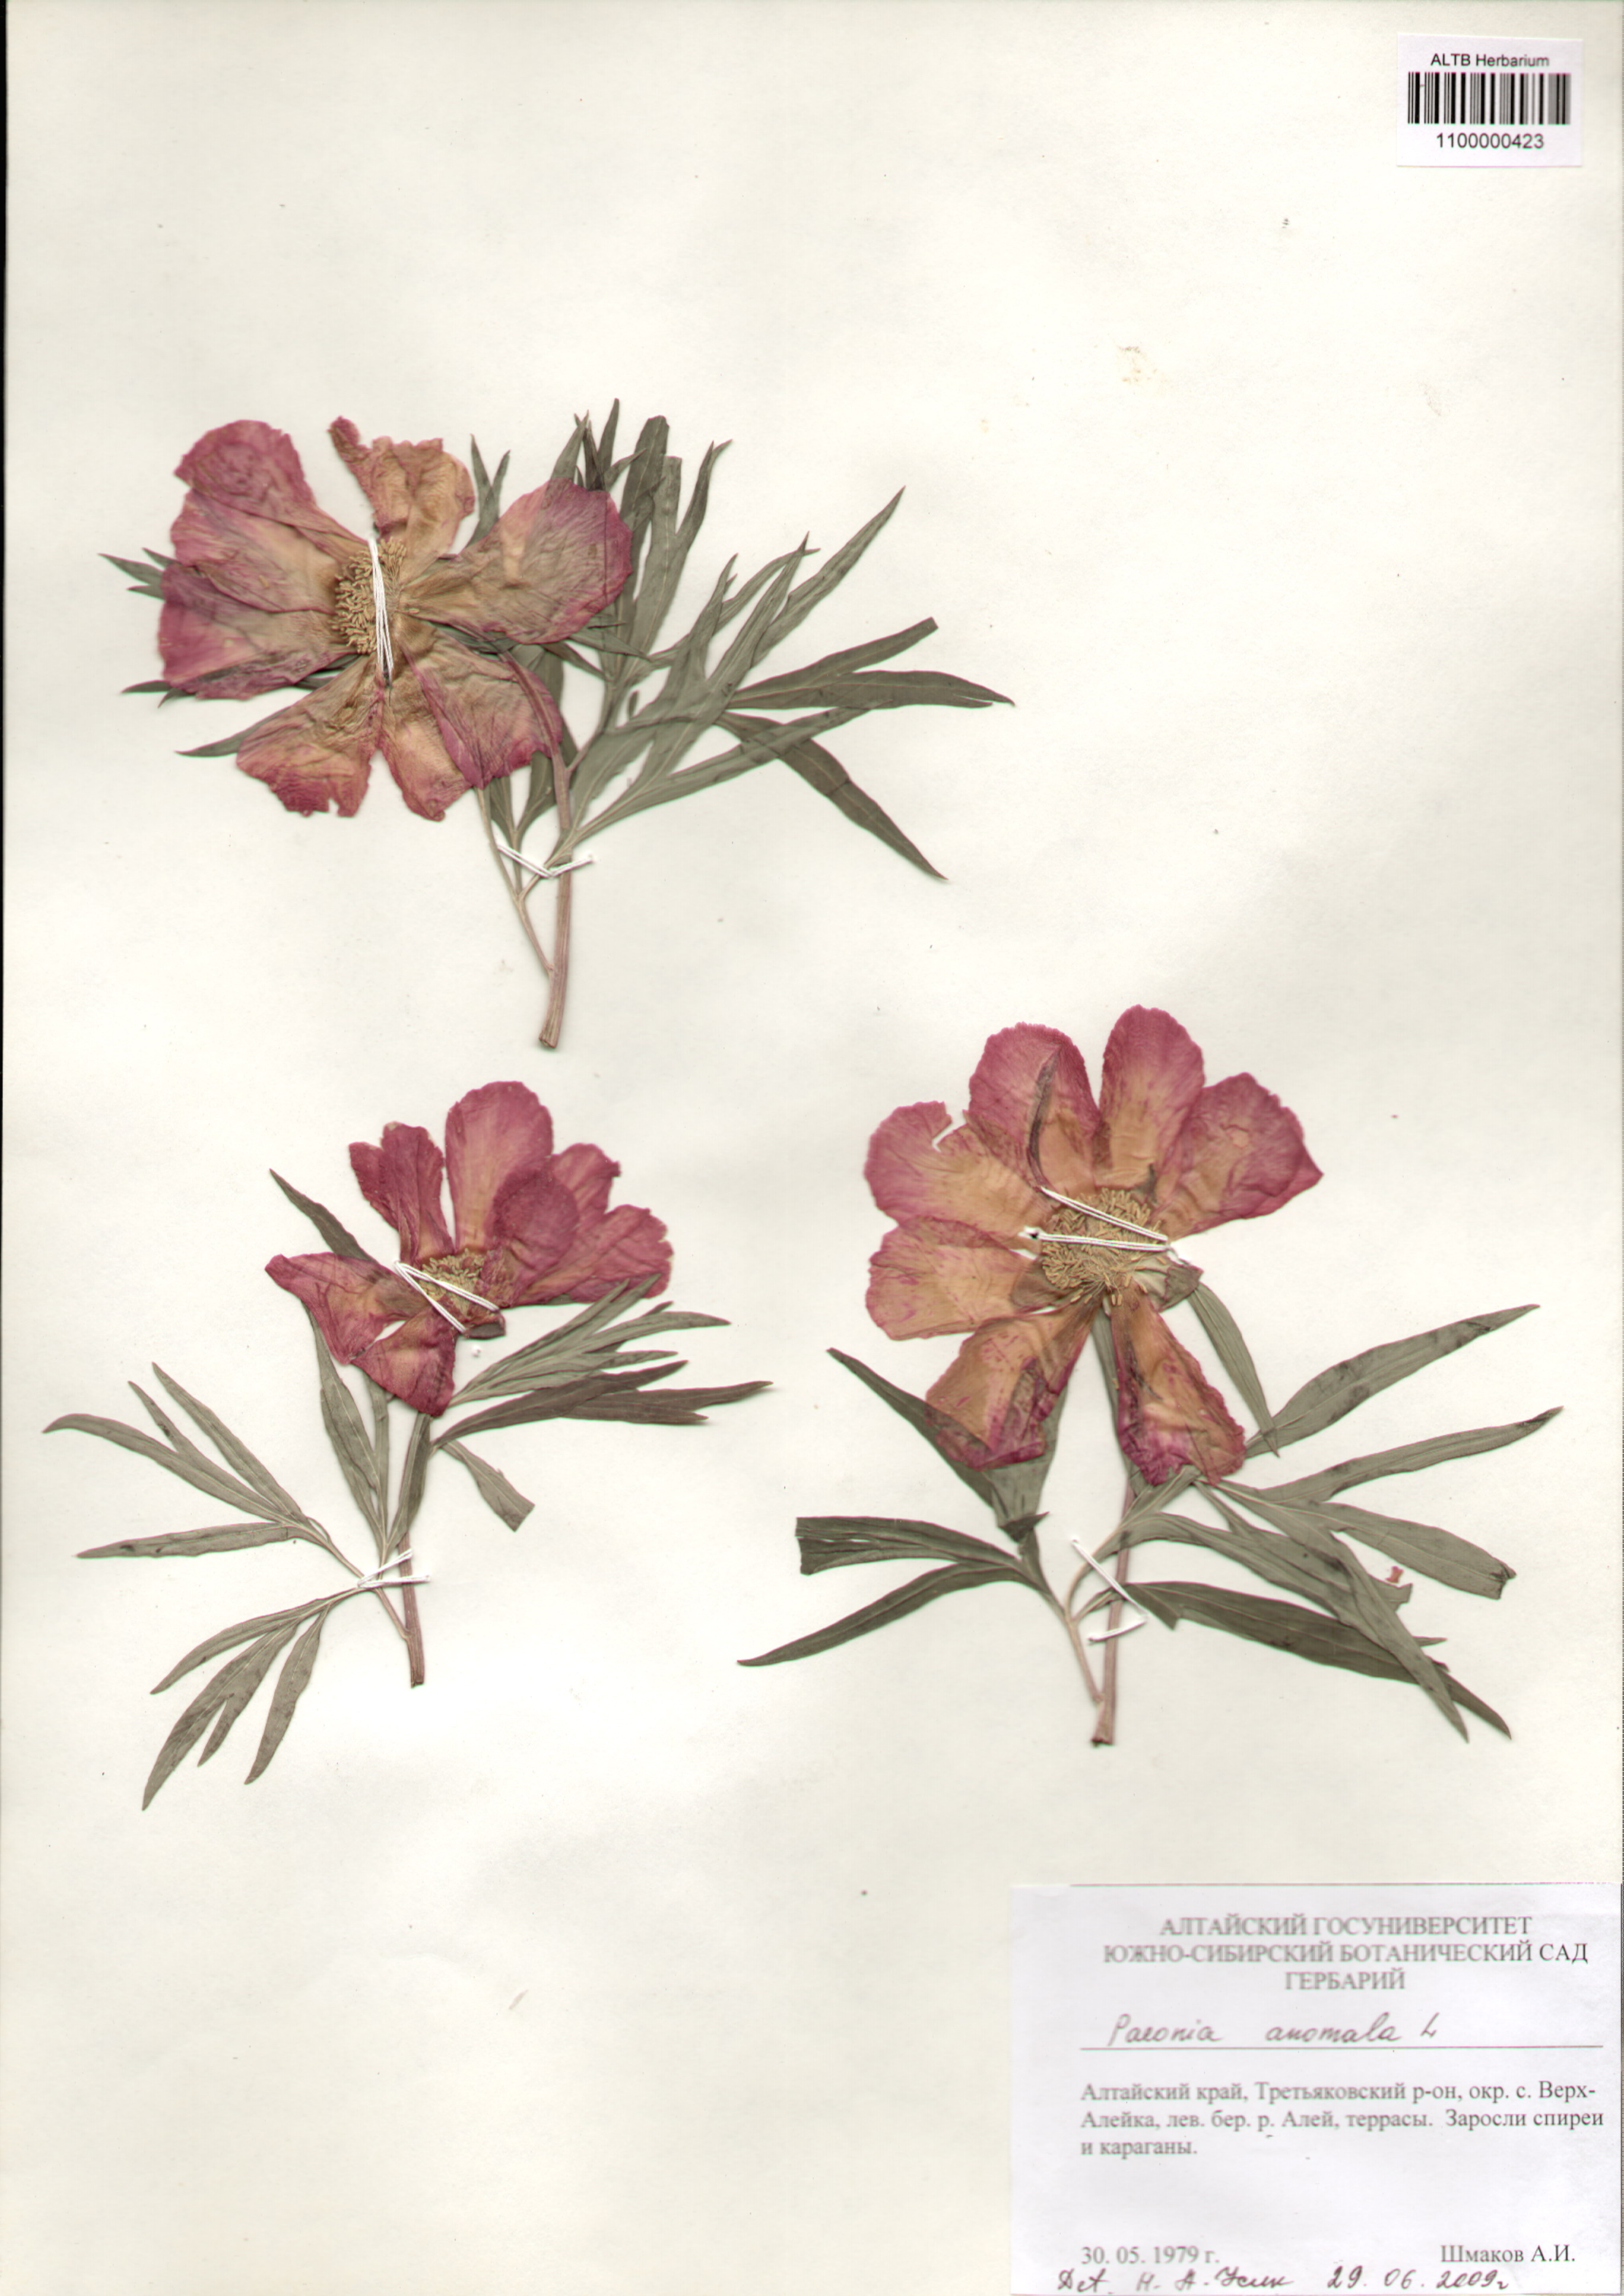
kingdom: Plantae
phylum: Tracheophyta
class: Magnoliopsida
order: Saxifragales
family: Paeoniaceae
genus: Paeonia
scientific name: Paeonia anomala
